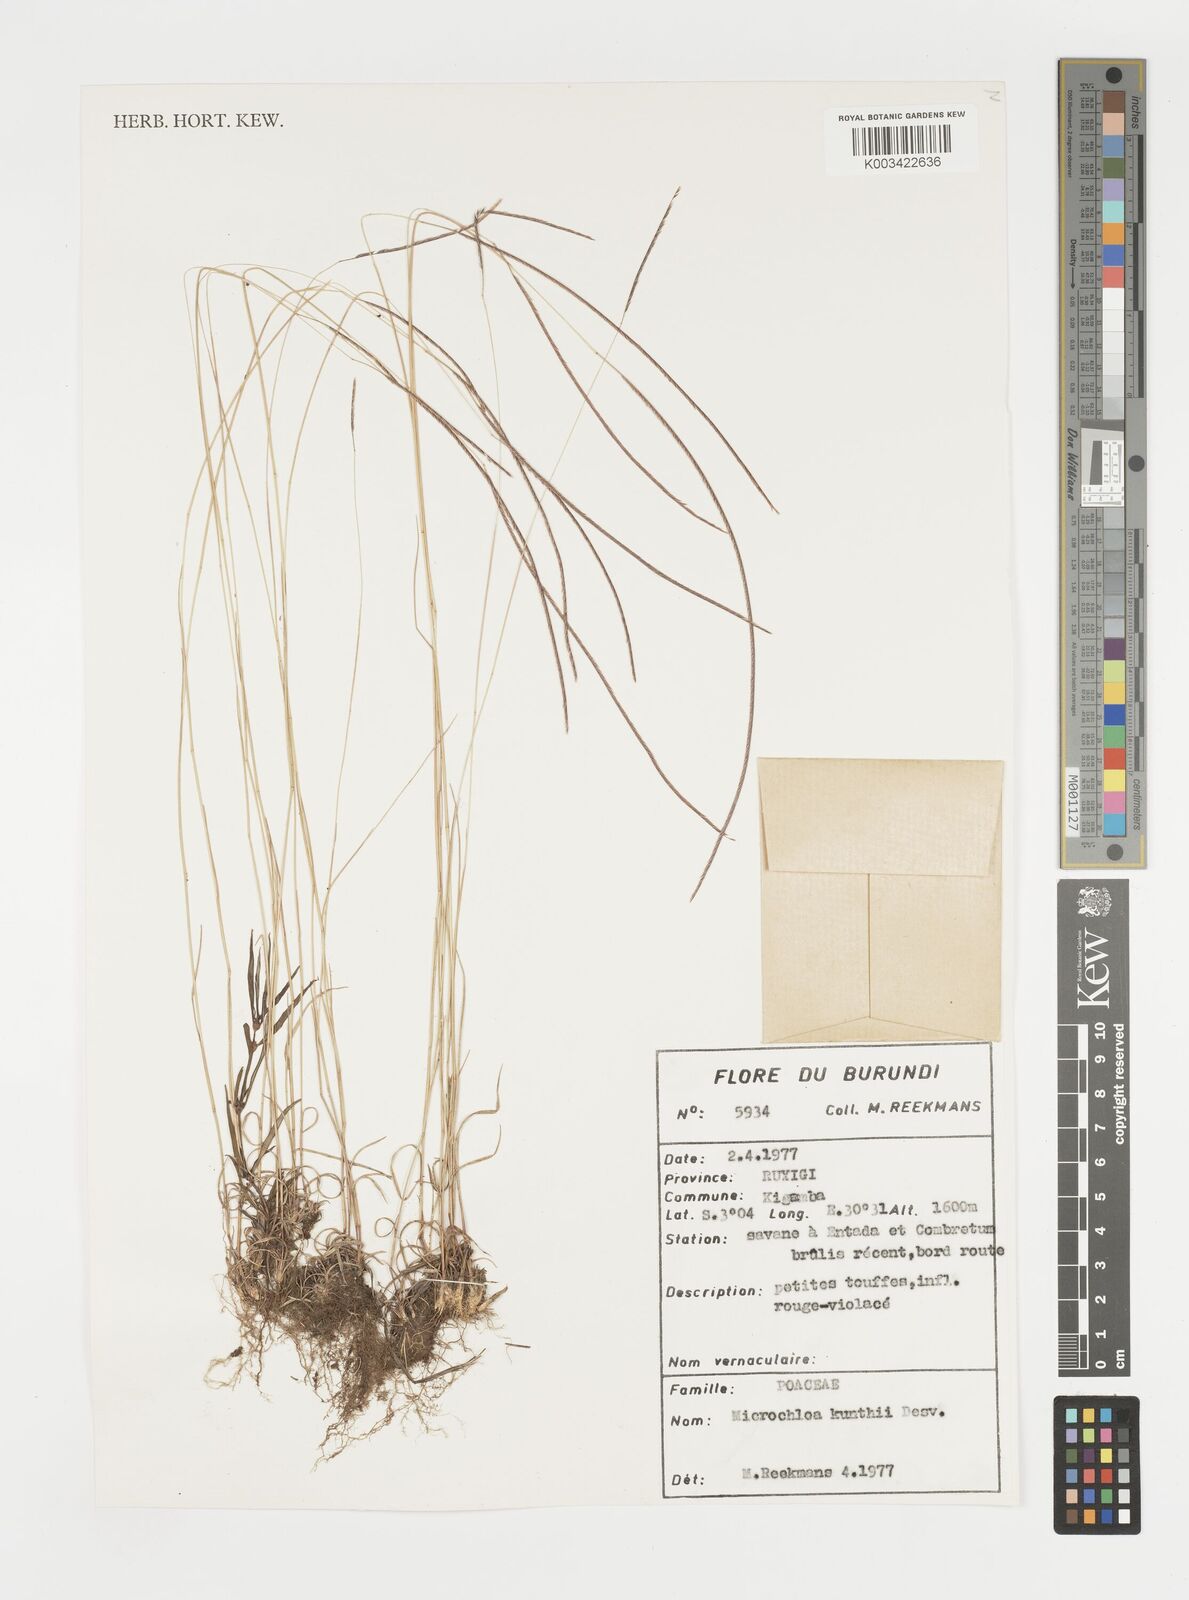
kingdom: Plantae
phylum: Tracheophyta
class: Liliopsida
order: Poales
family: Poaceae
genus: Microchloa
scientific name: Microchloa kunthii
